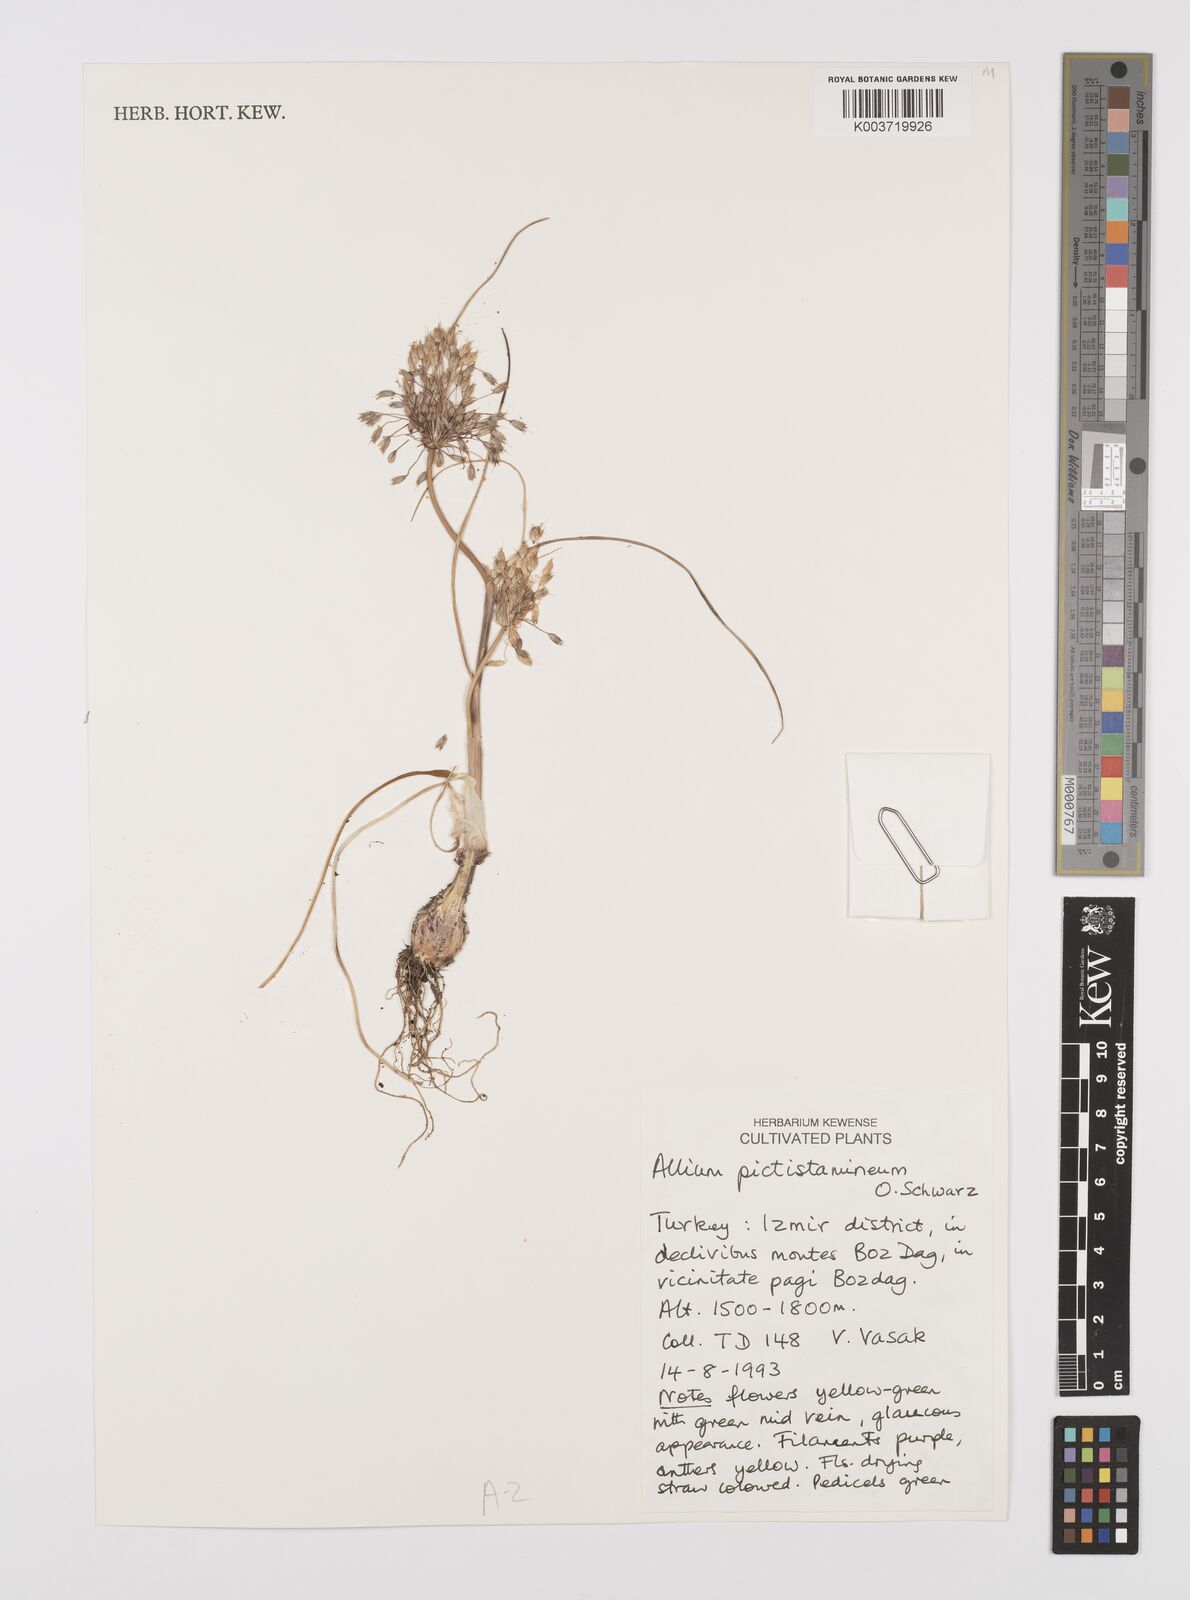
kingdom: Plantae
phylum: Tracheophyta
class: Liliopsida
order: Asparagales
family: Amaryllidaceae
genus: Allium
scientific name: Allium pictistamineum
